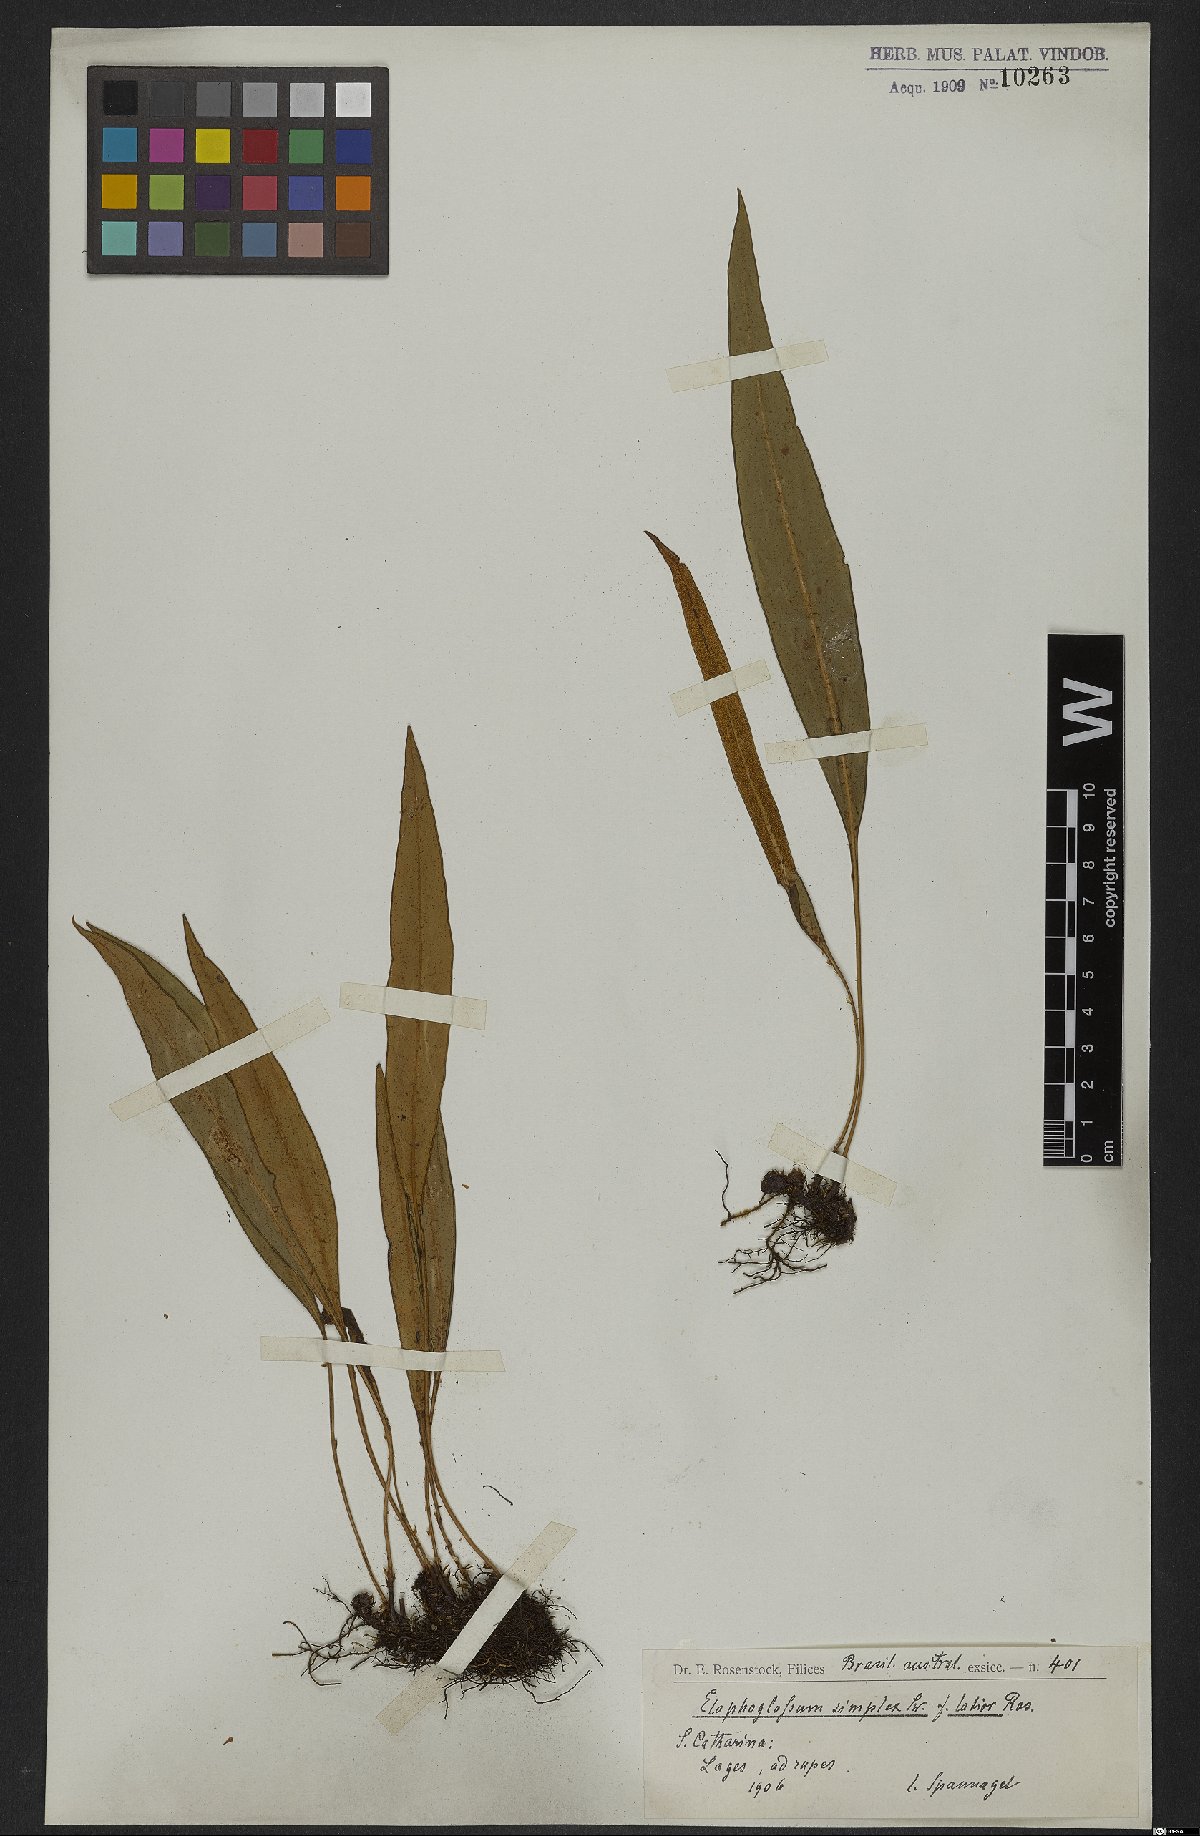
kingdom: Plantae
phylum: Tracheophyta
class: Polypodiopsida
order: Polypodiales
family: Dryopteridaceae
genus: Elaphoglossum
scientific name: Elaphoglossum simplex
